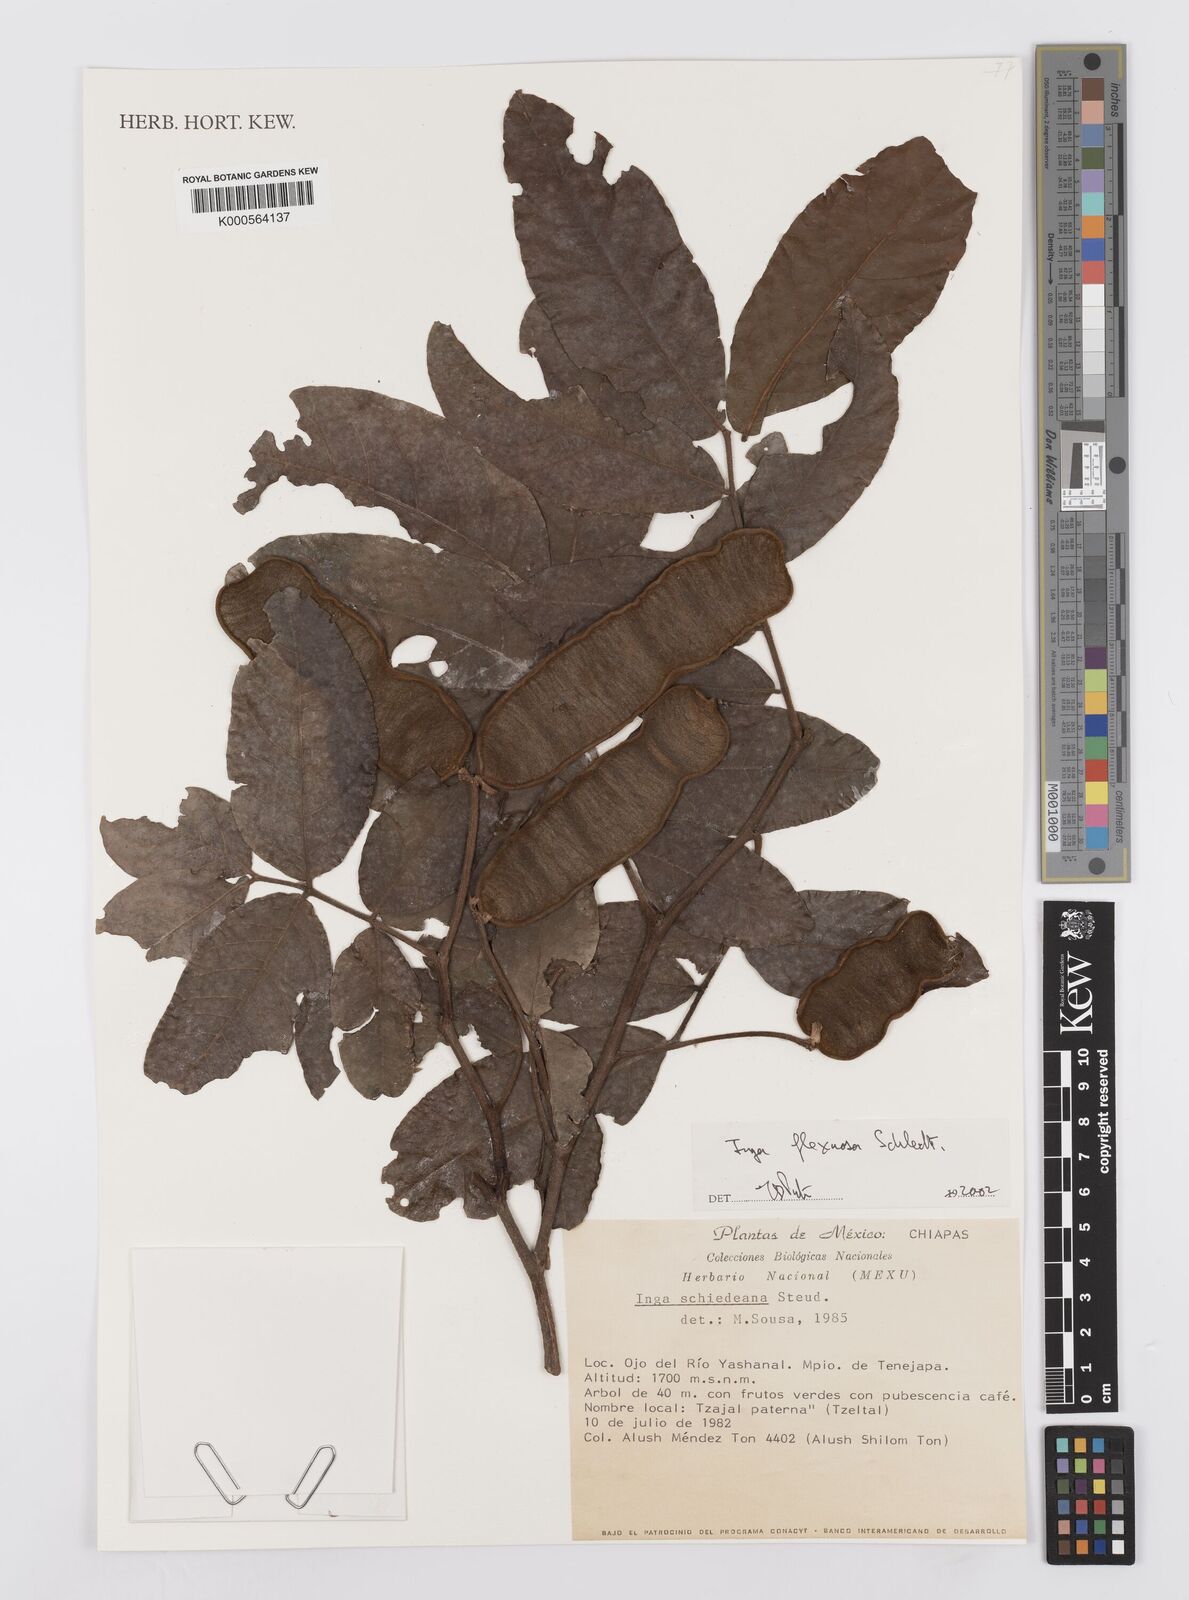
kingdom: Plantae
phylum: Tracheophyta
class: Magnoliopsida
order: Fabales
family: Fabaceae
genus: Inga
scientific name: Inga flexuosa
